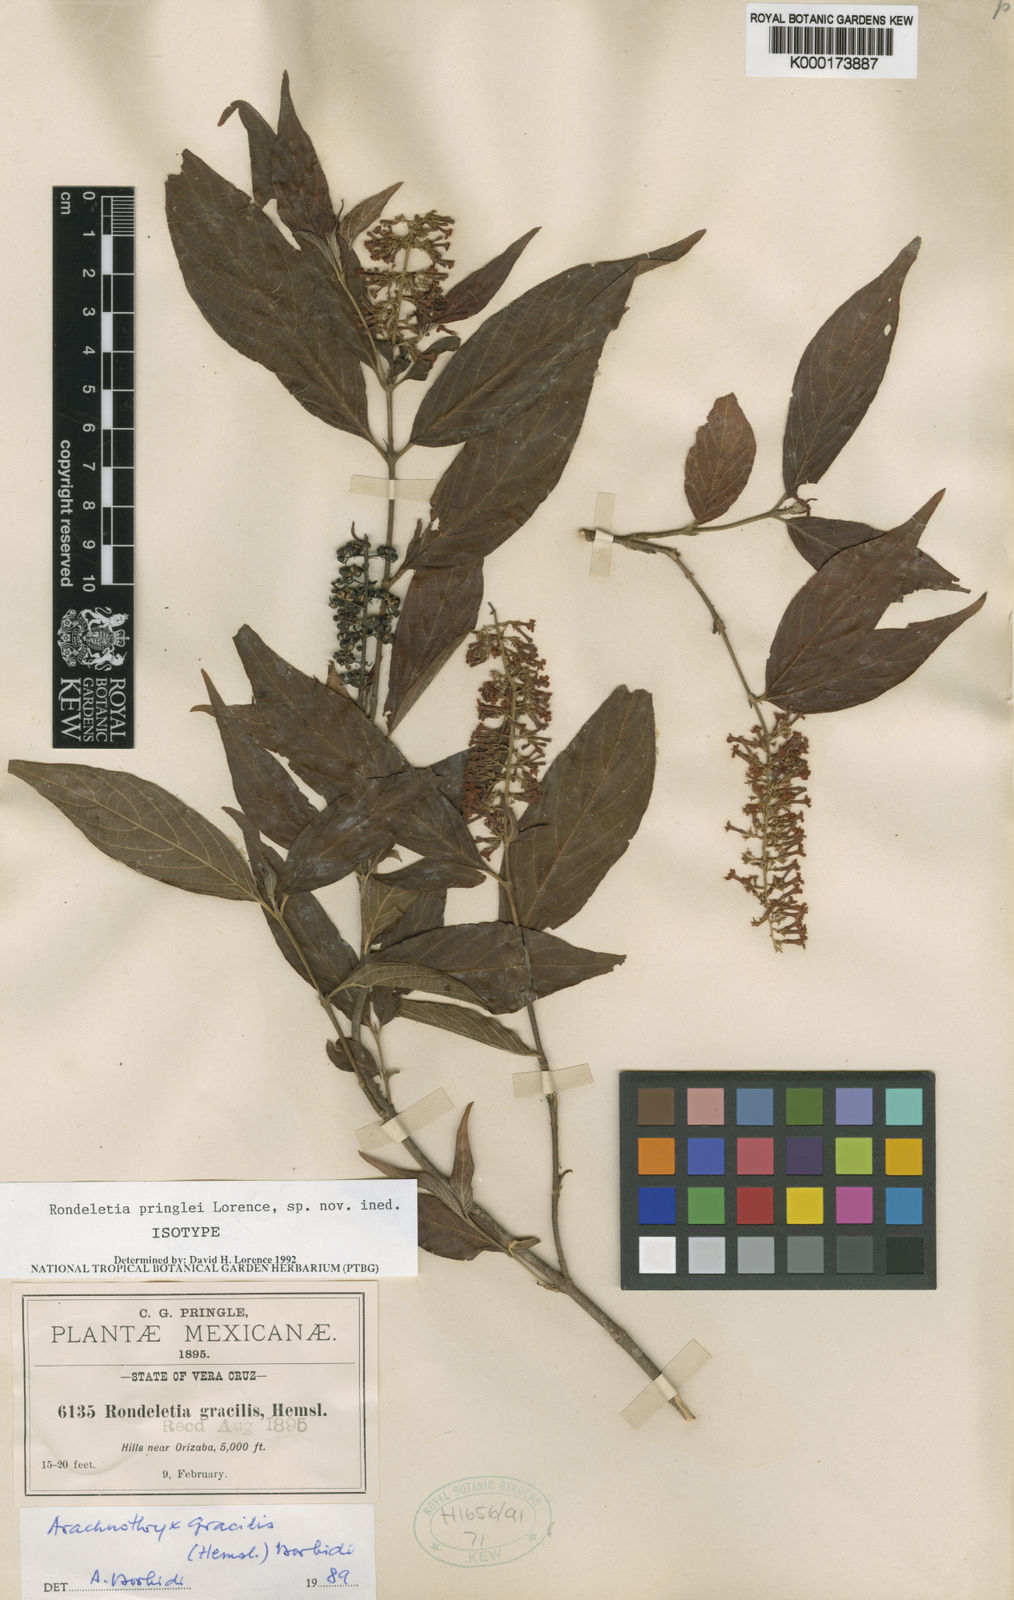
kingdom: Plantae
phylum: Tracheophyta
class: Magnoliopsida
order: Gentianales
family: Rubiaceae
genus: Arachnothryx
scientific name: Arachnothryx capitellata
